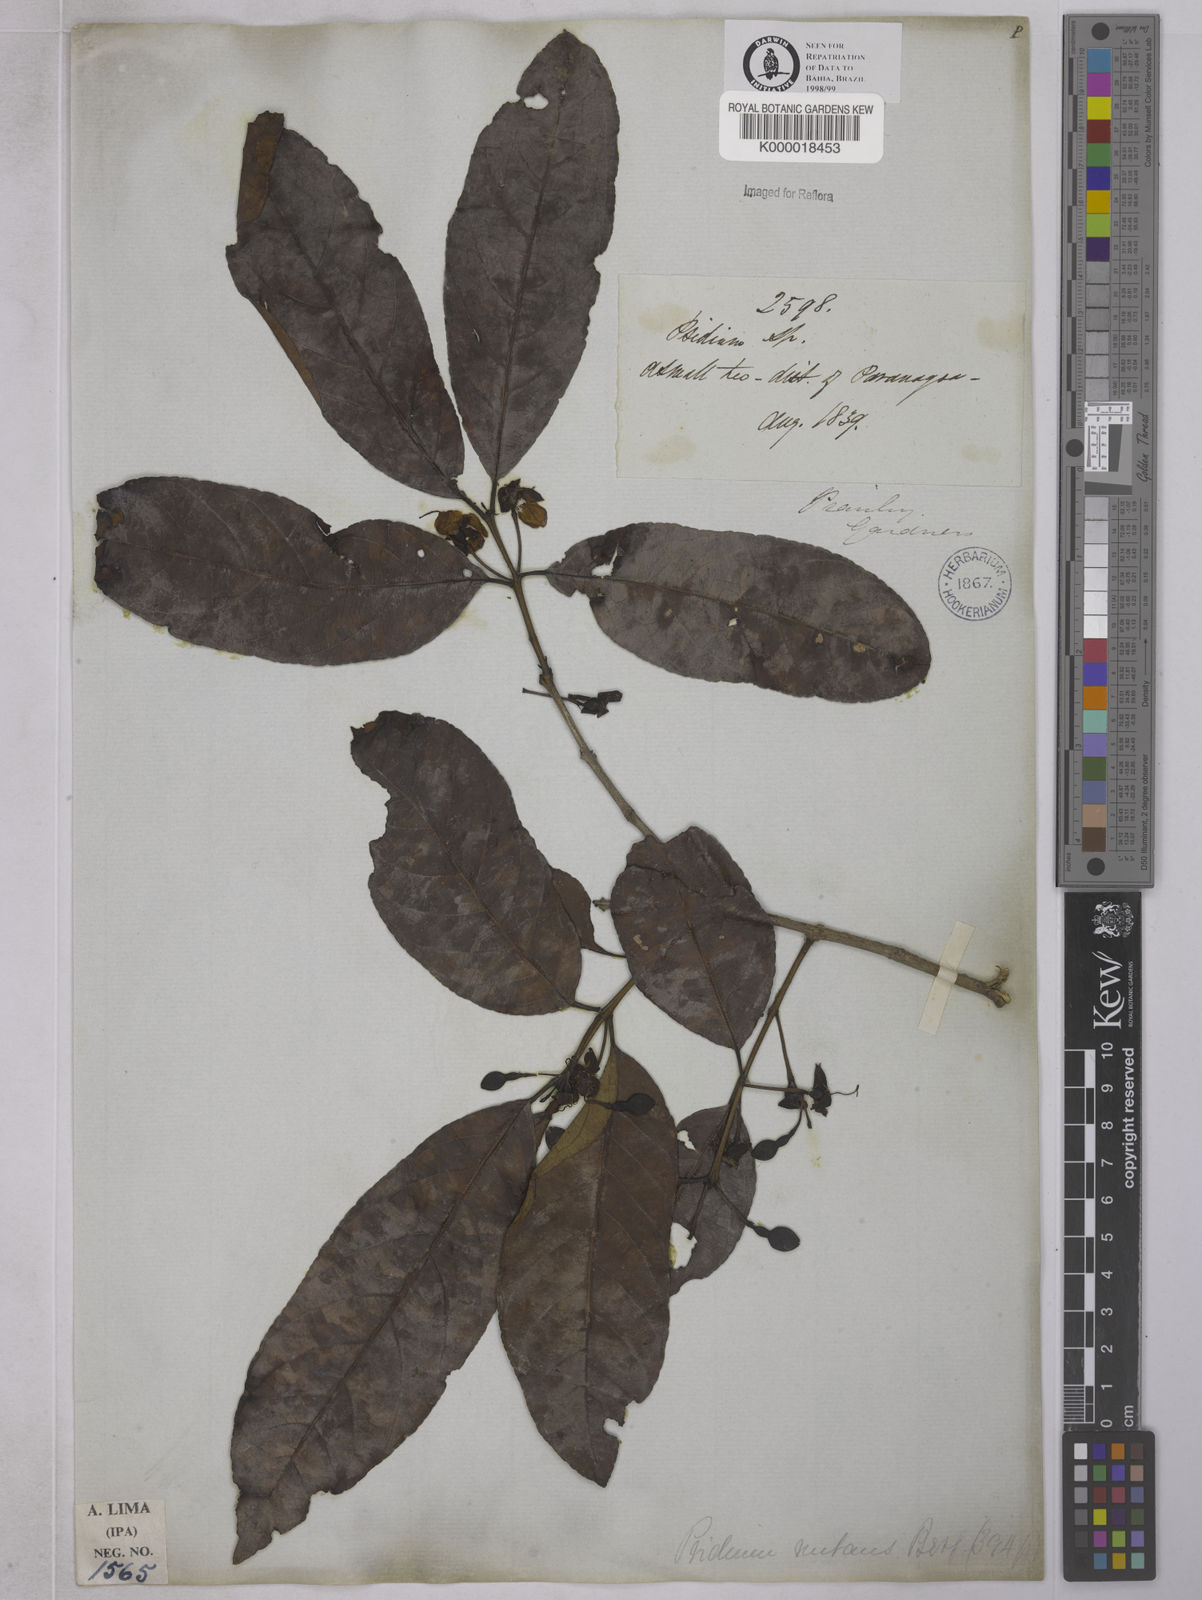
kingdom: Plantae
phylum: Tracheophyta
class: Magnoliopsida
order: Myrtales
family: Myrtaceae
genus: Psidium
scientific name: Psidium nutans
